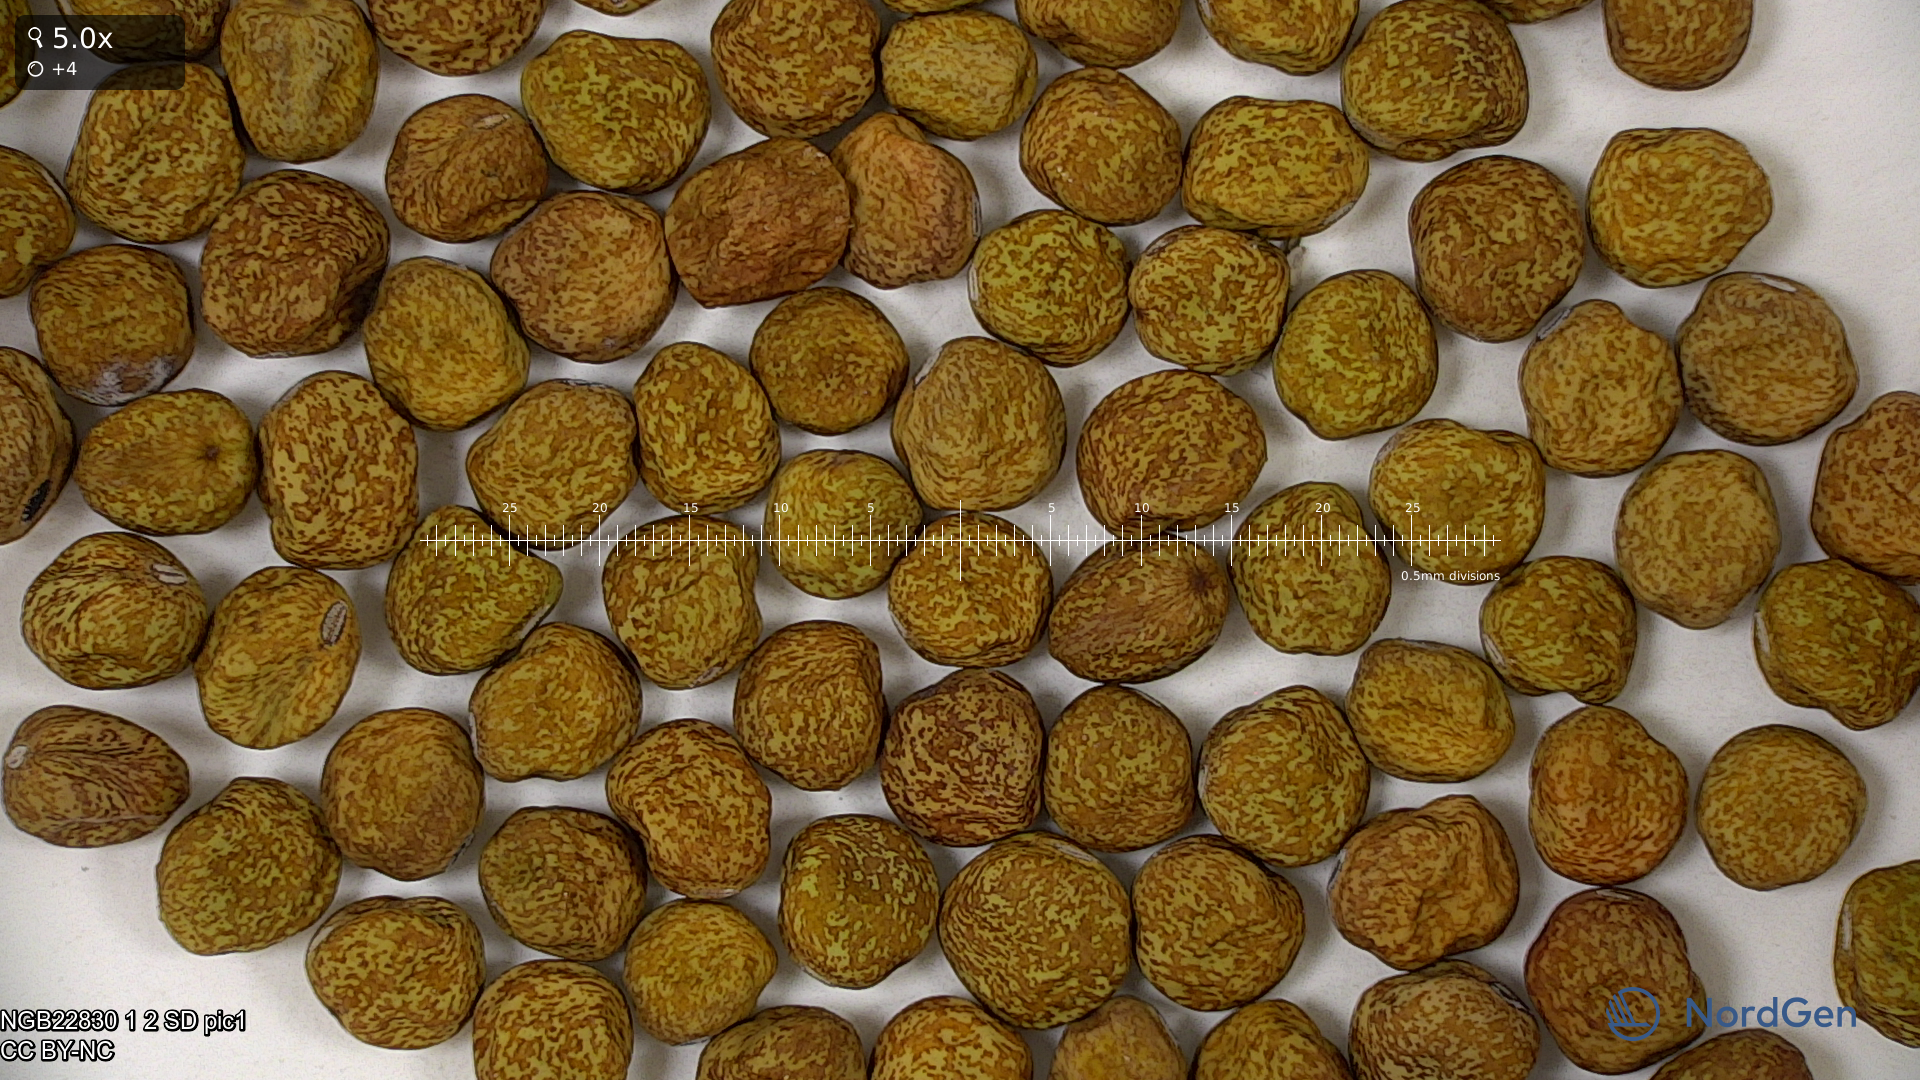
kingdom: Plantae
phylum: Tracheophyta
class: Magnoliopsida
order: Fabales
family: Fabaceae
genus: Lathyrus
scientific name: Lathyrus oleraceus
